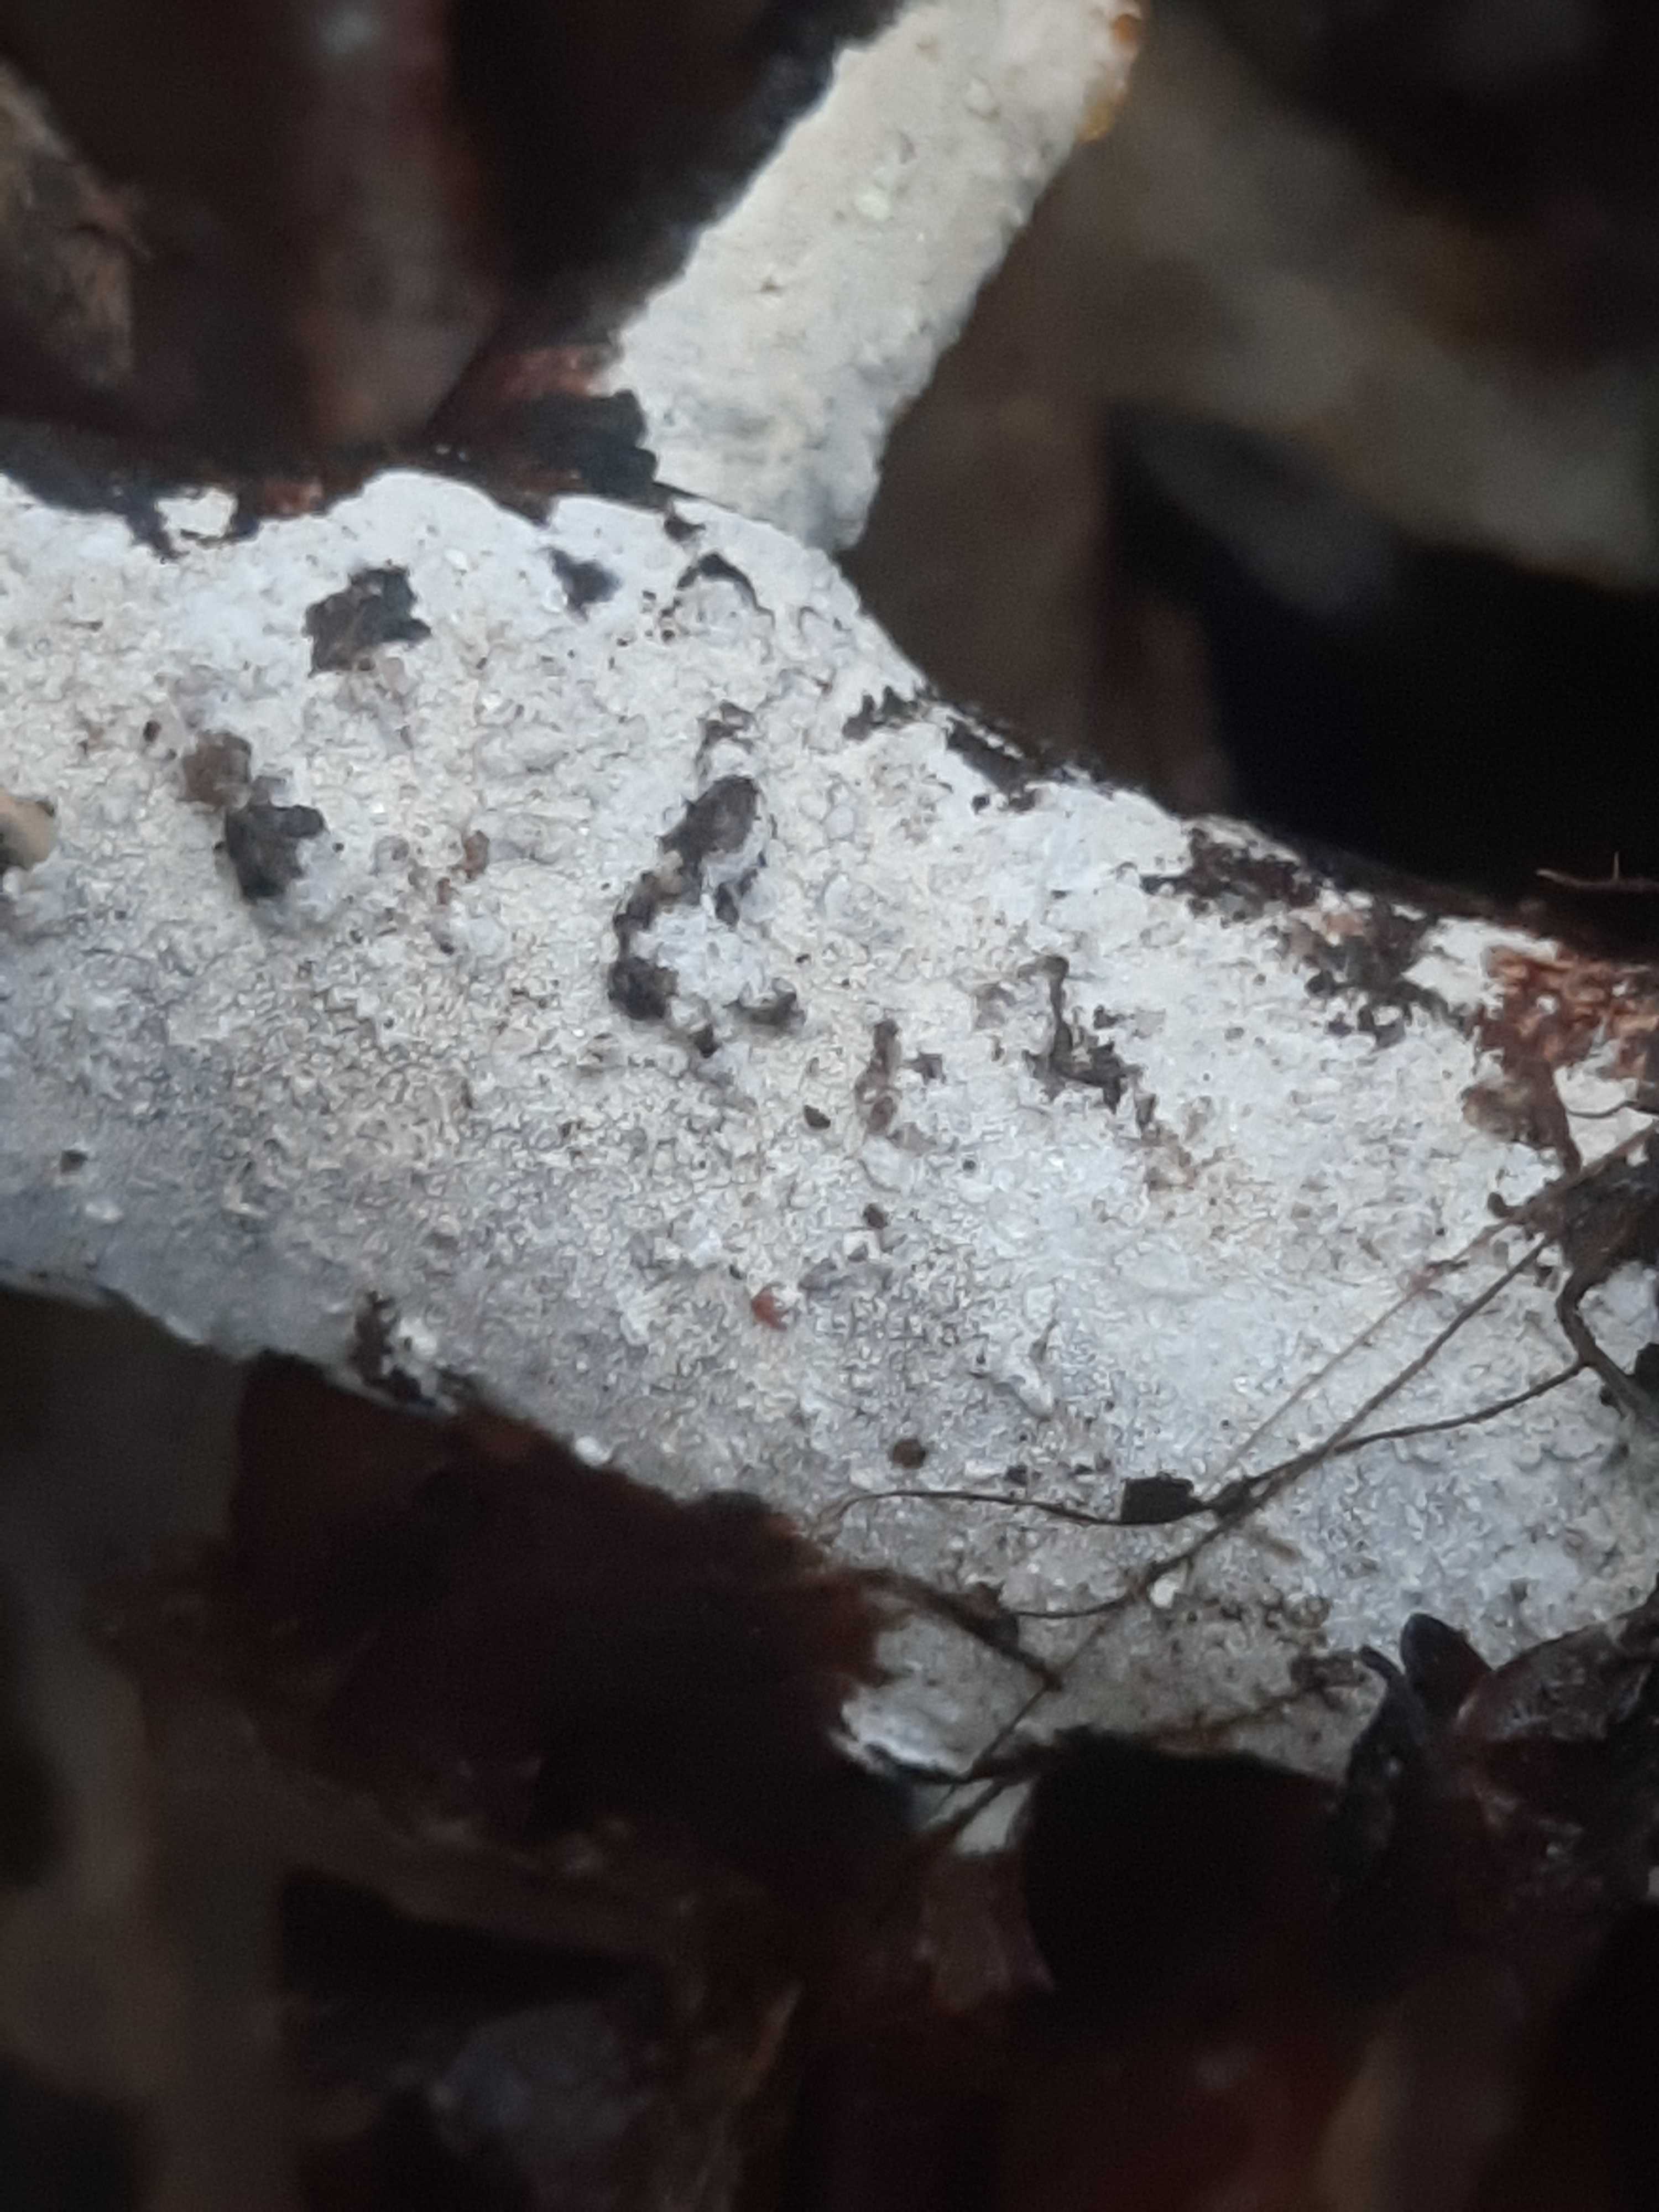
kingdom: Fungi
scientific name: Fungi
